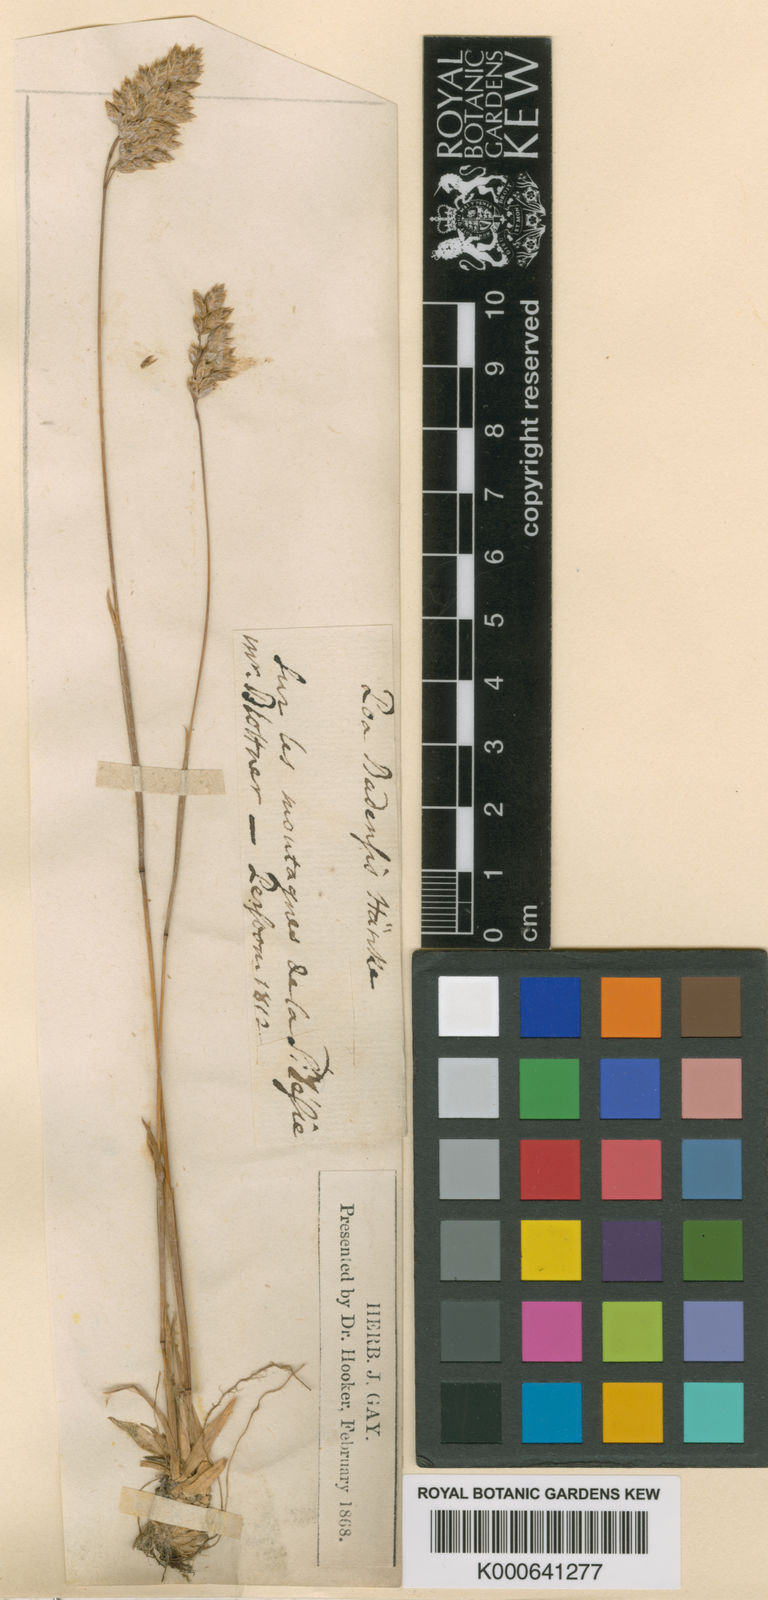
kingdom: Plantae
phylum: Tracheophyta
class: Liliopsida
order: Poales
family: Poaceae
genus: Poa
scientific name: Poa badensis
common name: Baden's bluegrass
